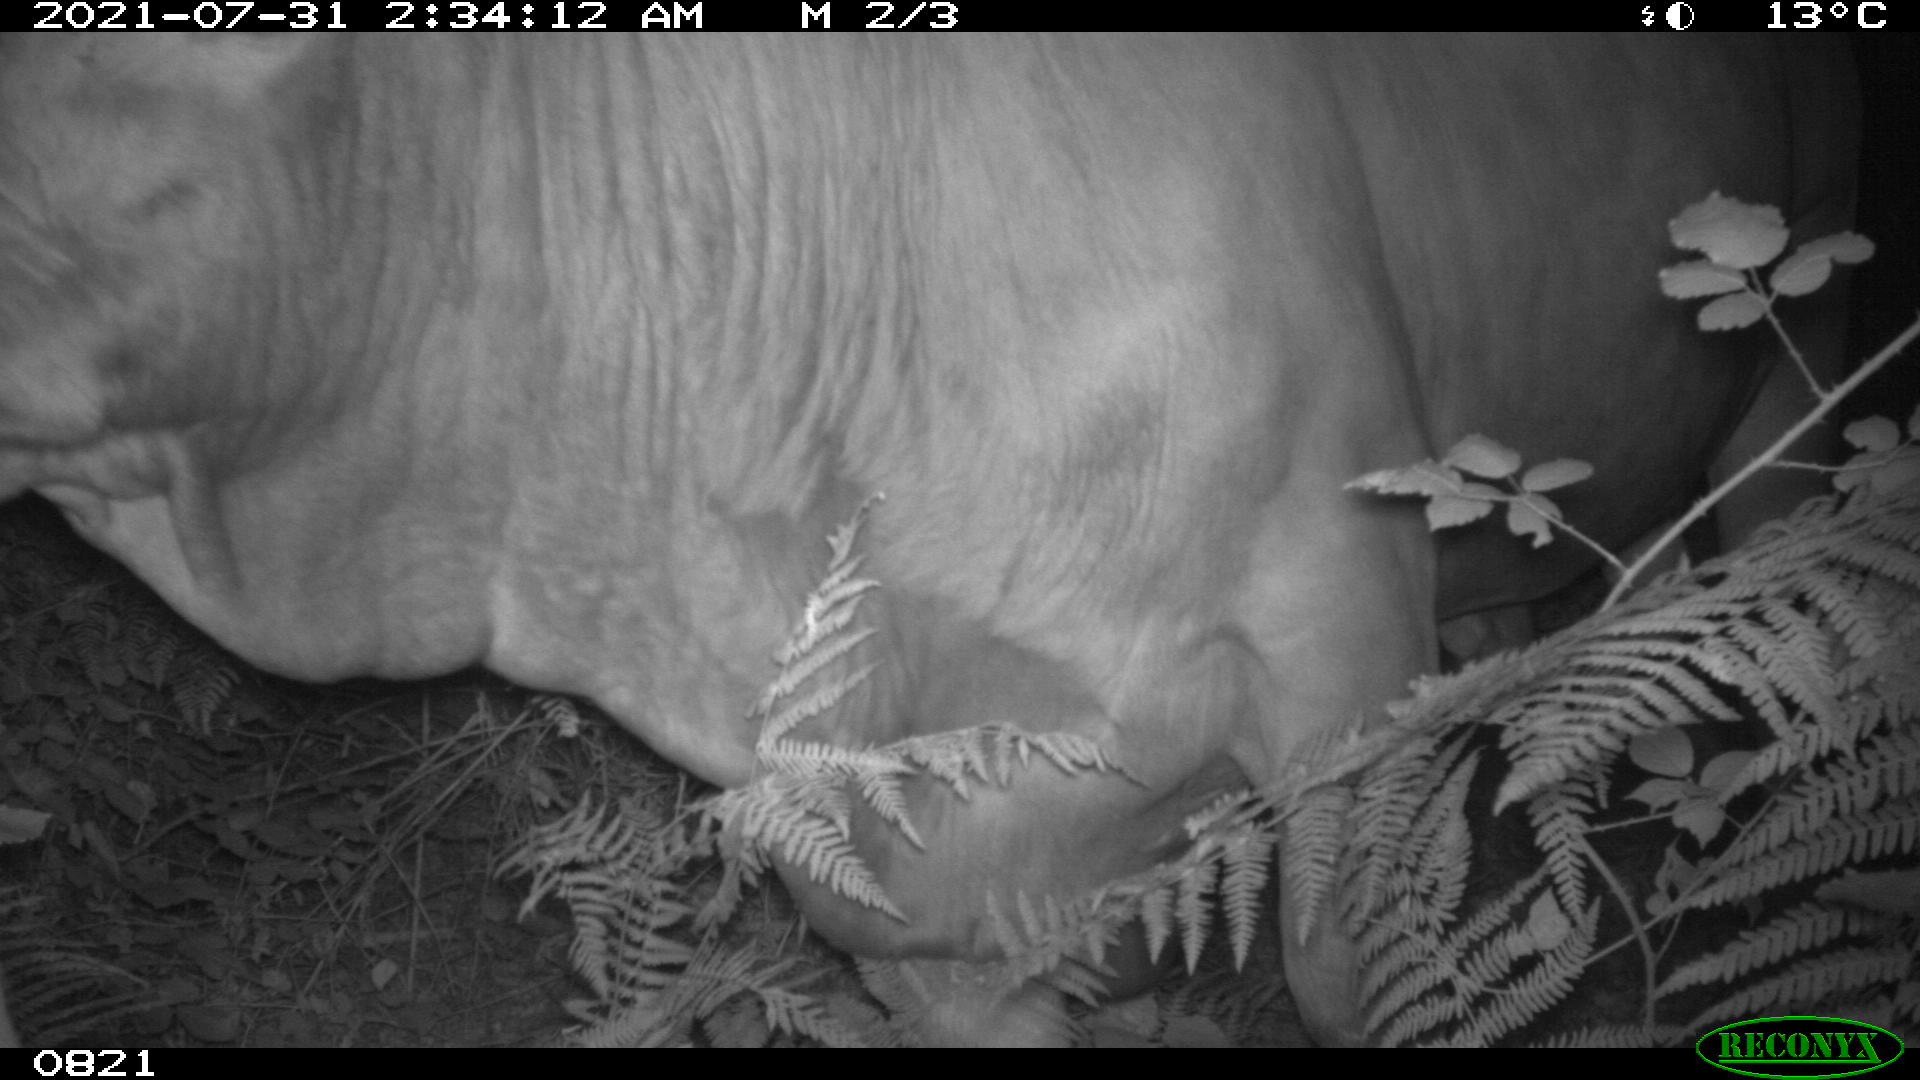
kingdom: Animalia
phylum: Chordata
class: Mammalia
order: Artiodactyla
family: Bovidae
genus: Bos
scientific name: Bos taurus
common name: Domesticated cattle
